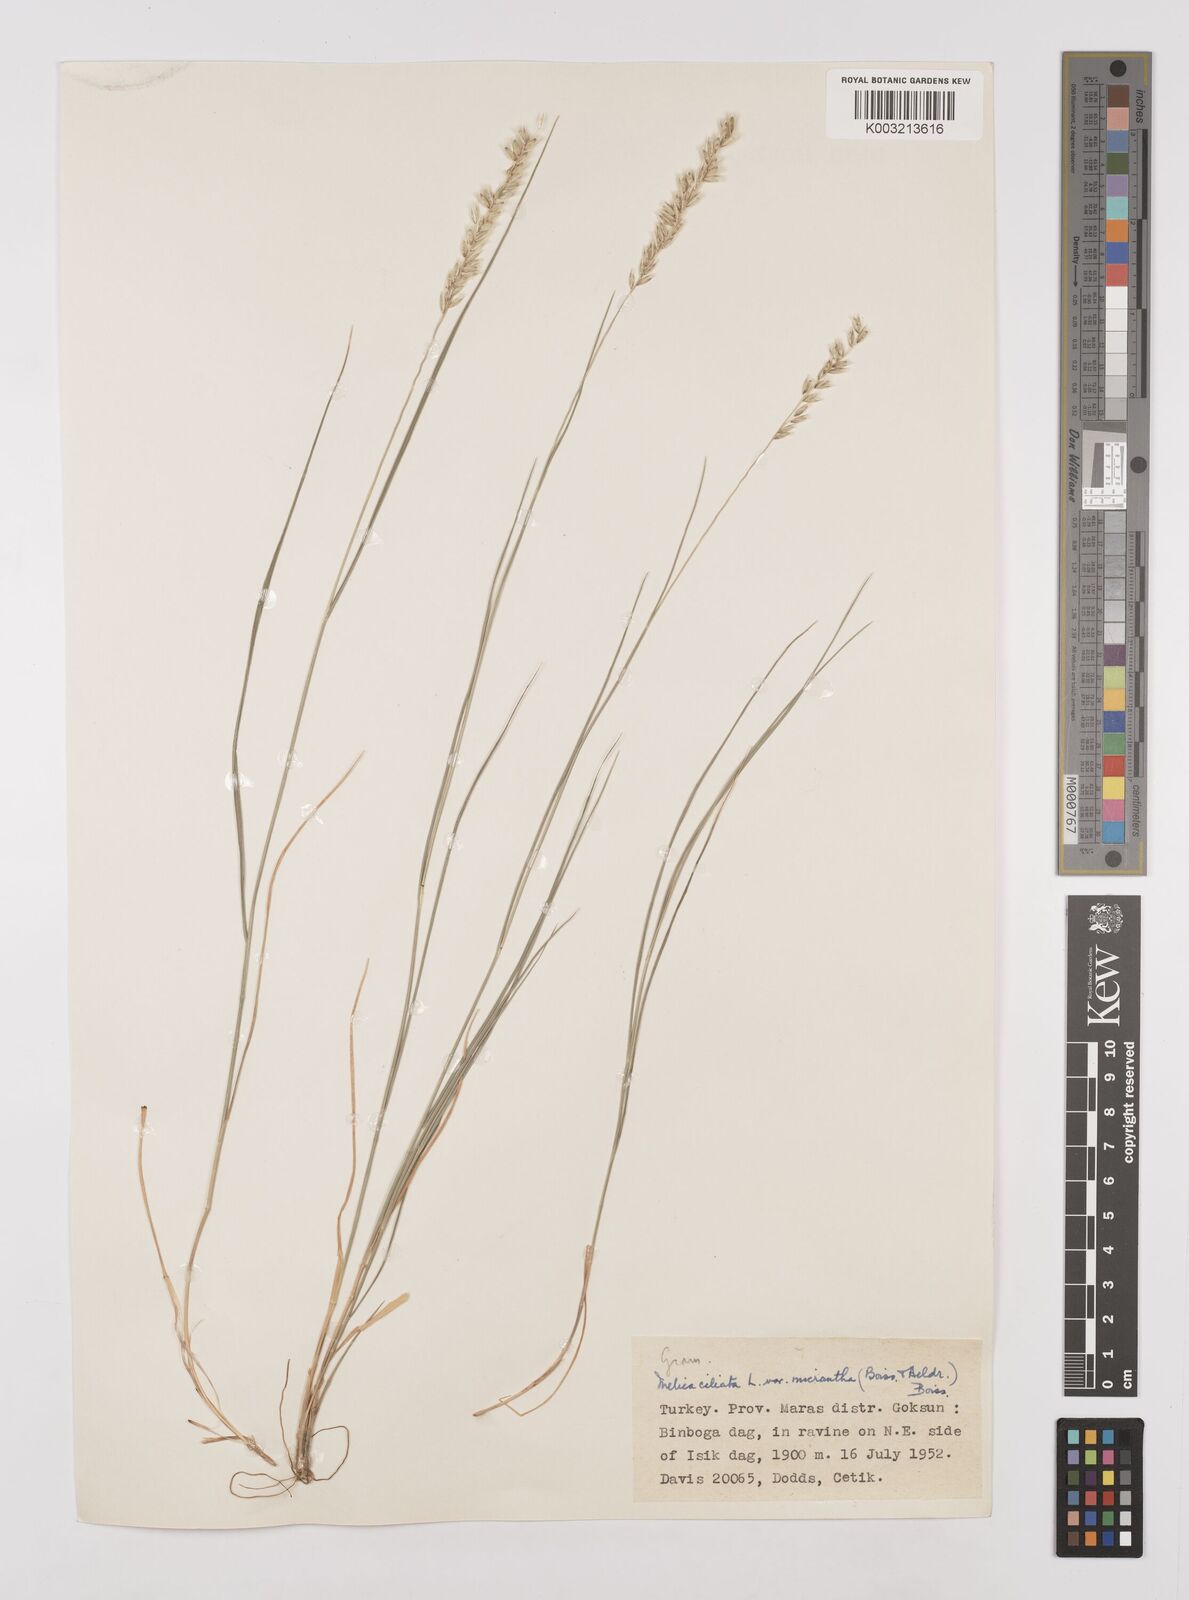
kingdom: Plantae
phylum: Tracheophyta
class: Liliopsida
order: Poales
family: Poaceae
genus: Melica
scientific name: Melica ciliata
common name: Hairy melicgrass
